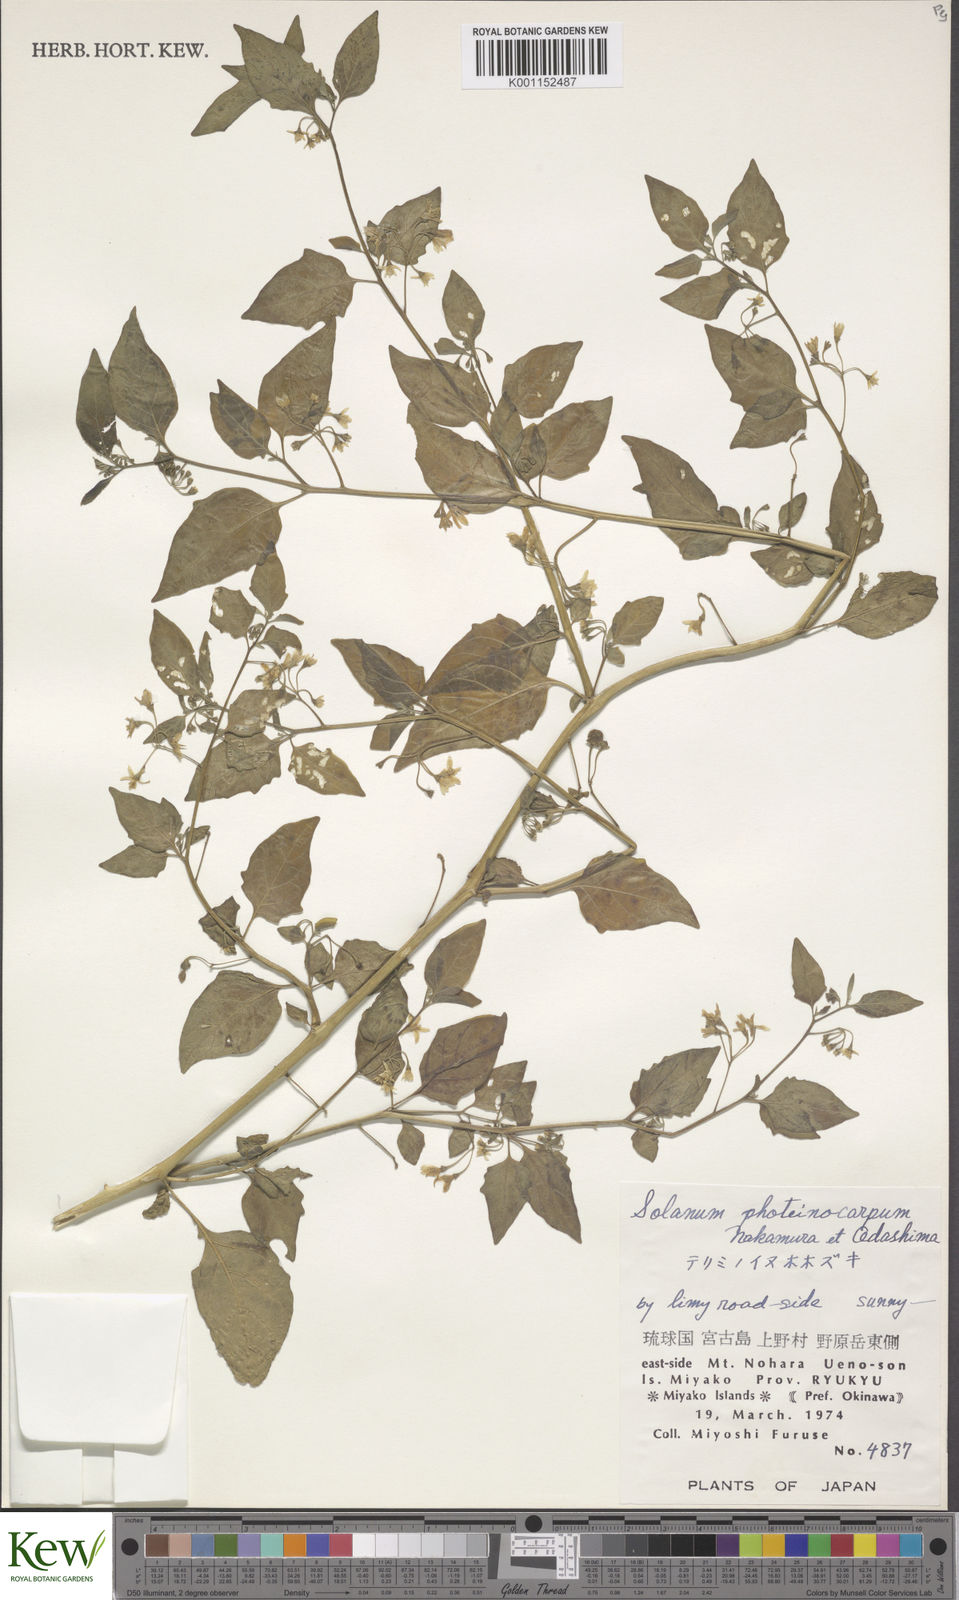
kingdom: Plantae
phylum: Tracheophyta
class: Magnoliopsida
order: Solanales
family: Solanaceae
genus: Solanum
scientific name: Solanum americanum
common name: American black nightshade
